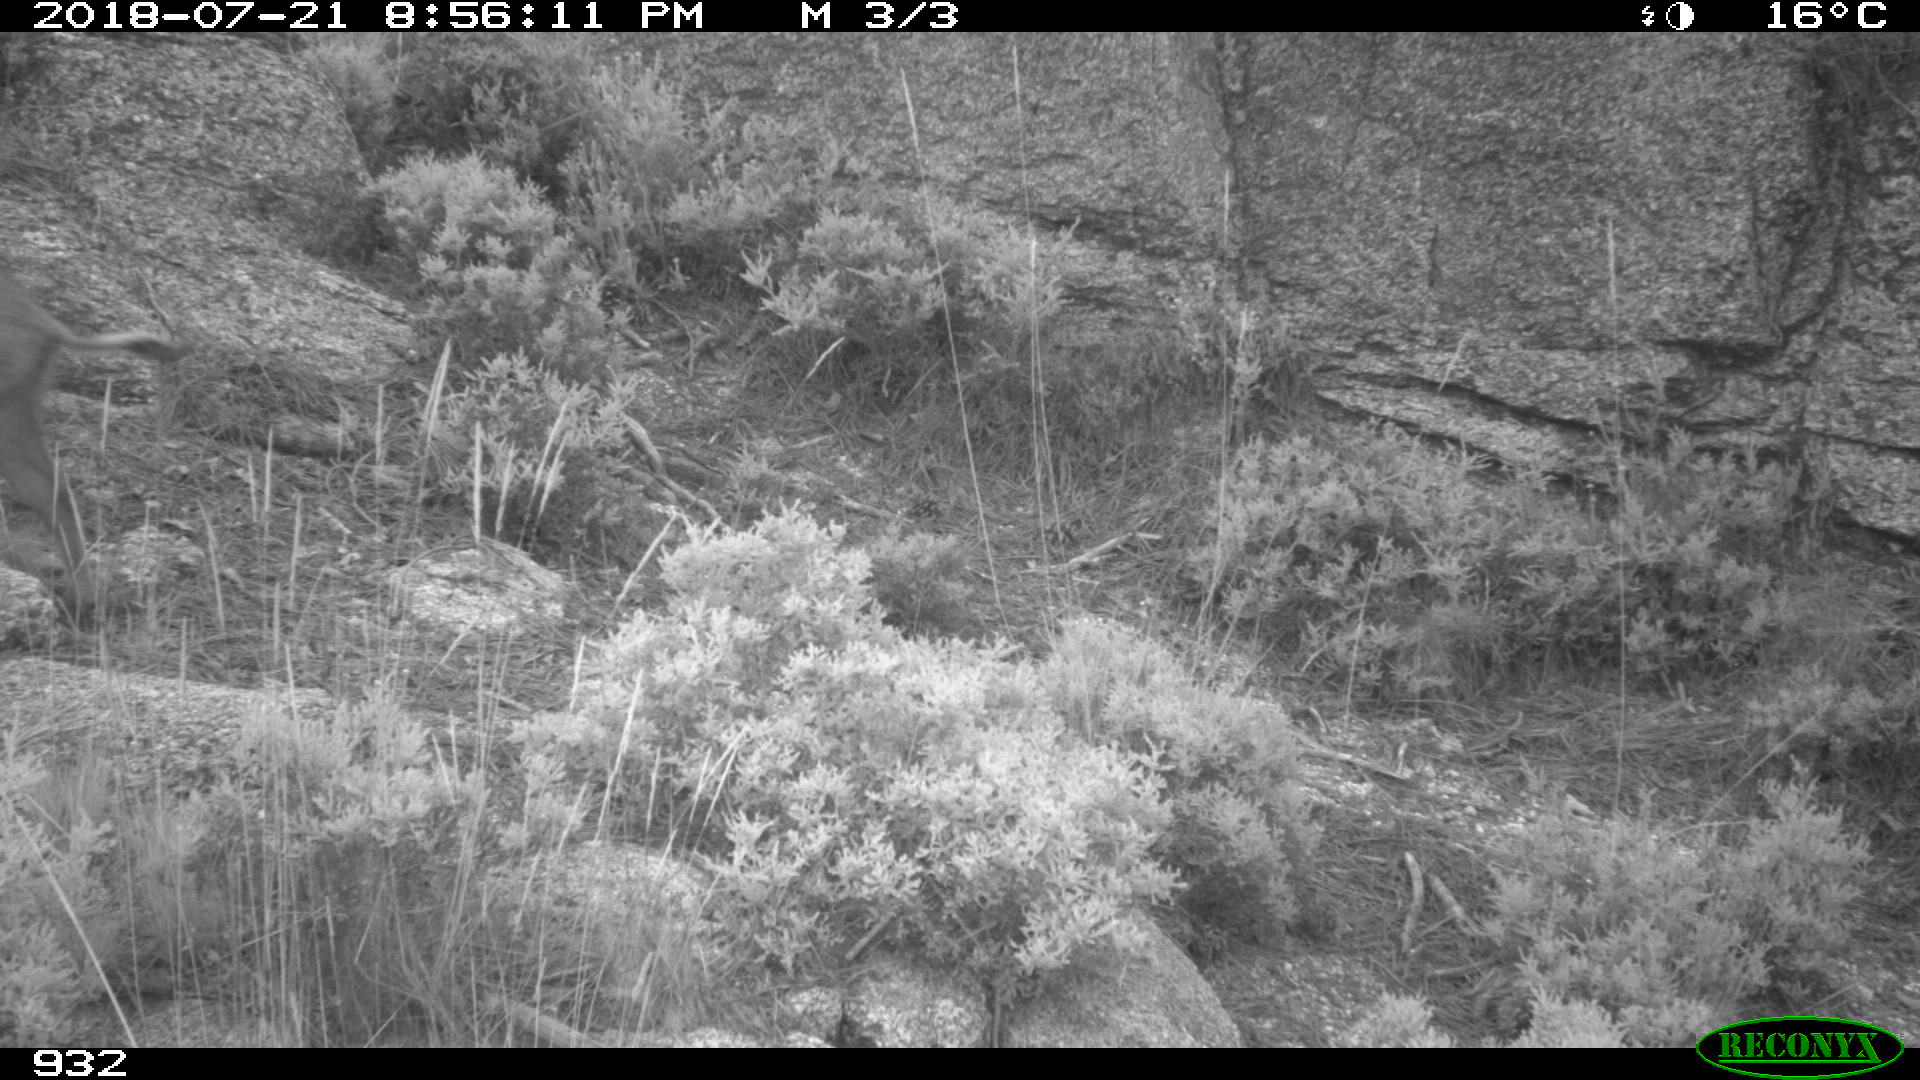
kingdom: Animalia
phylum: Chordata
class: Mammalia
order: Artiodactyla
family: Suidae
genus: Sus
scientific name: Sus scrofa
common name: Wild boar
